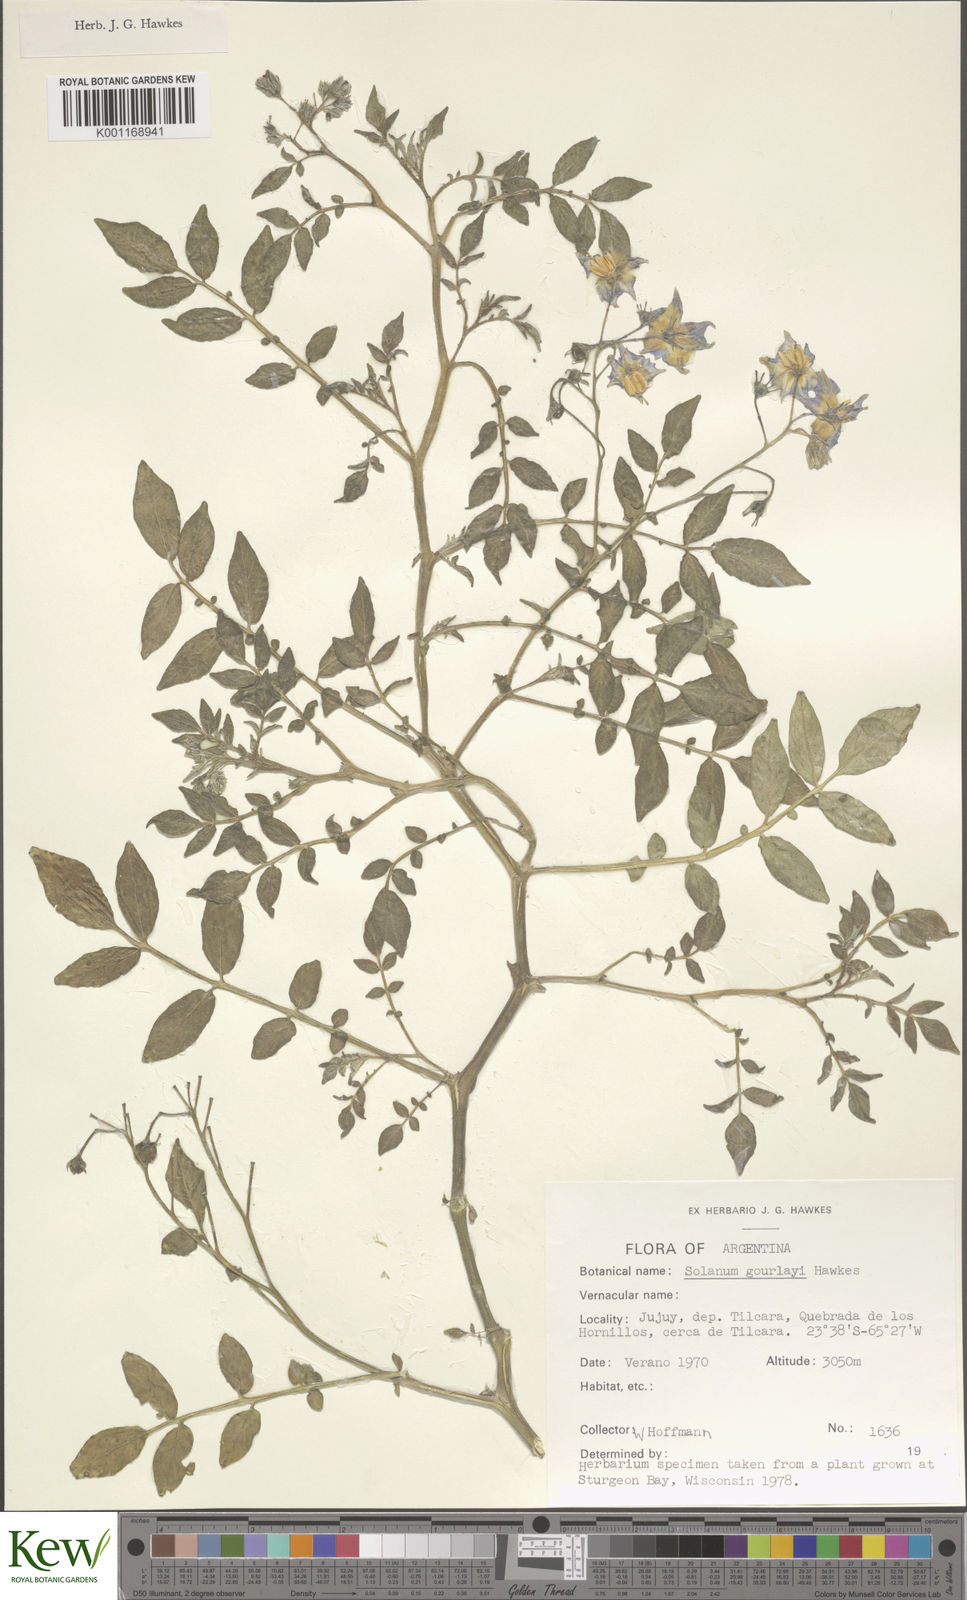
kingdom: Plantae
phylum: Tracheophyta
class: Magnoliopsida
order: Solanales
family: Solanaceae
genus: Solanum
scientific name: Solanum brevicaule
